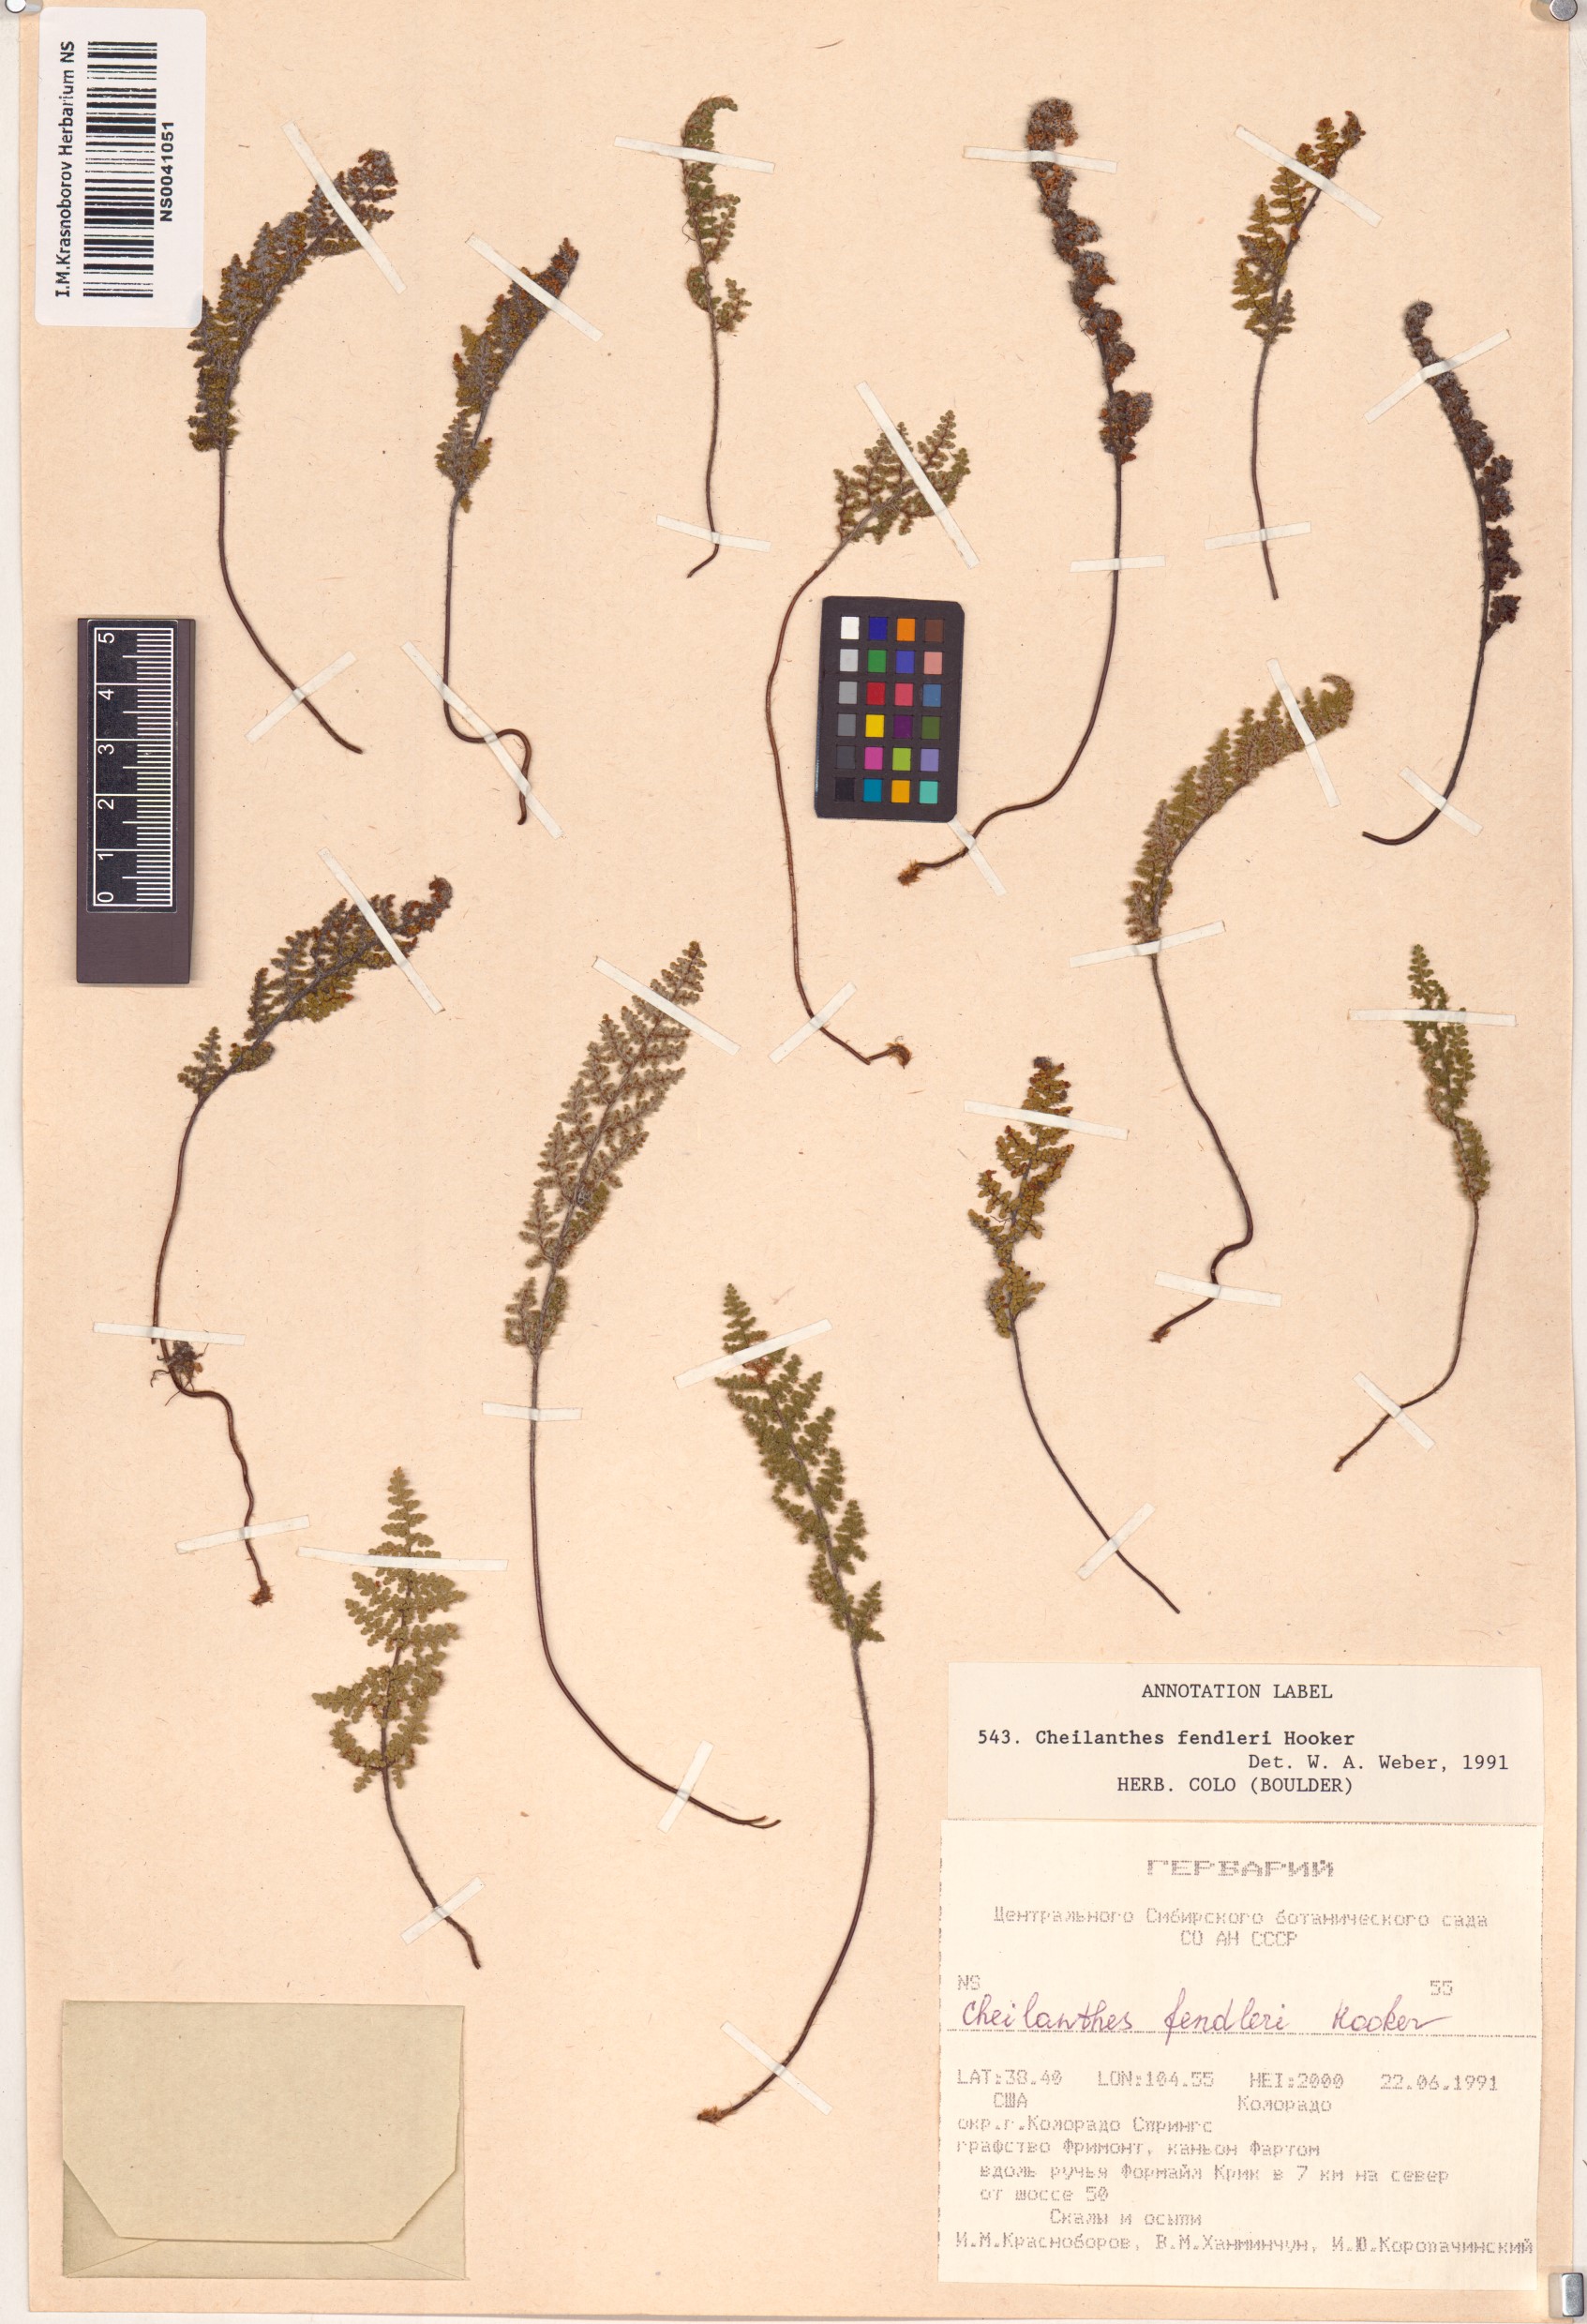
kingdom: Plantae
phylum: Tracheophyta
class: Polypodiopsida
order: Polypodiales
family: Pteridaceae
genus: Myriopteris
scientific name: Myriopteris fendleri
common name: Fendler's lip fern
